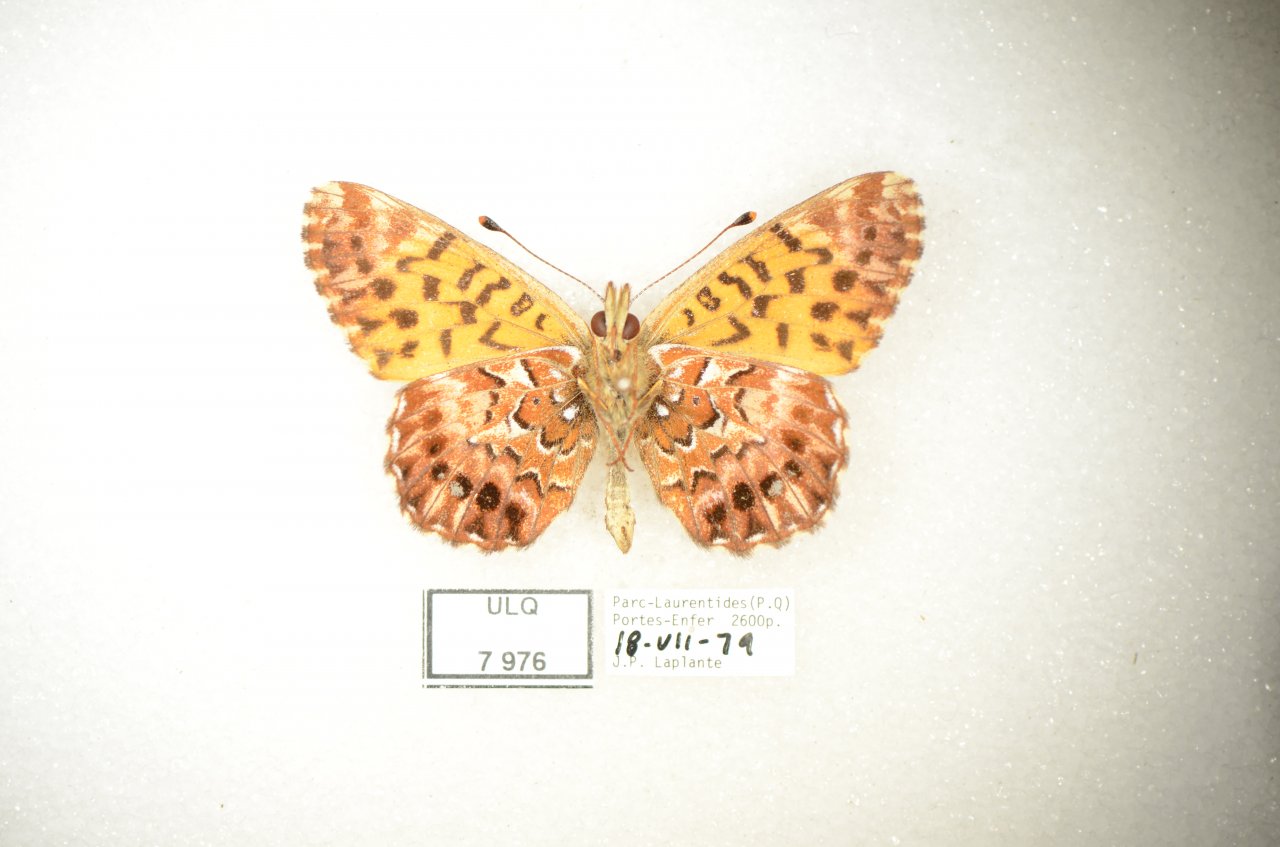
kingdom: Animalia
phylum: Arthropoda
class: Insecta
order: Lepidoptera
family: Nymphalidae
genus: Boloria
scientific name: Boloria chariclea
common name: Arctic Fritillary
